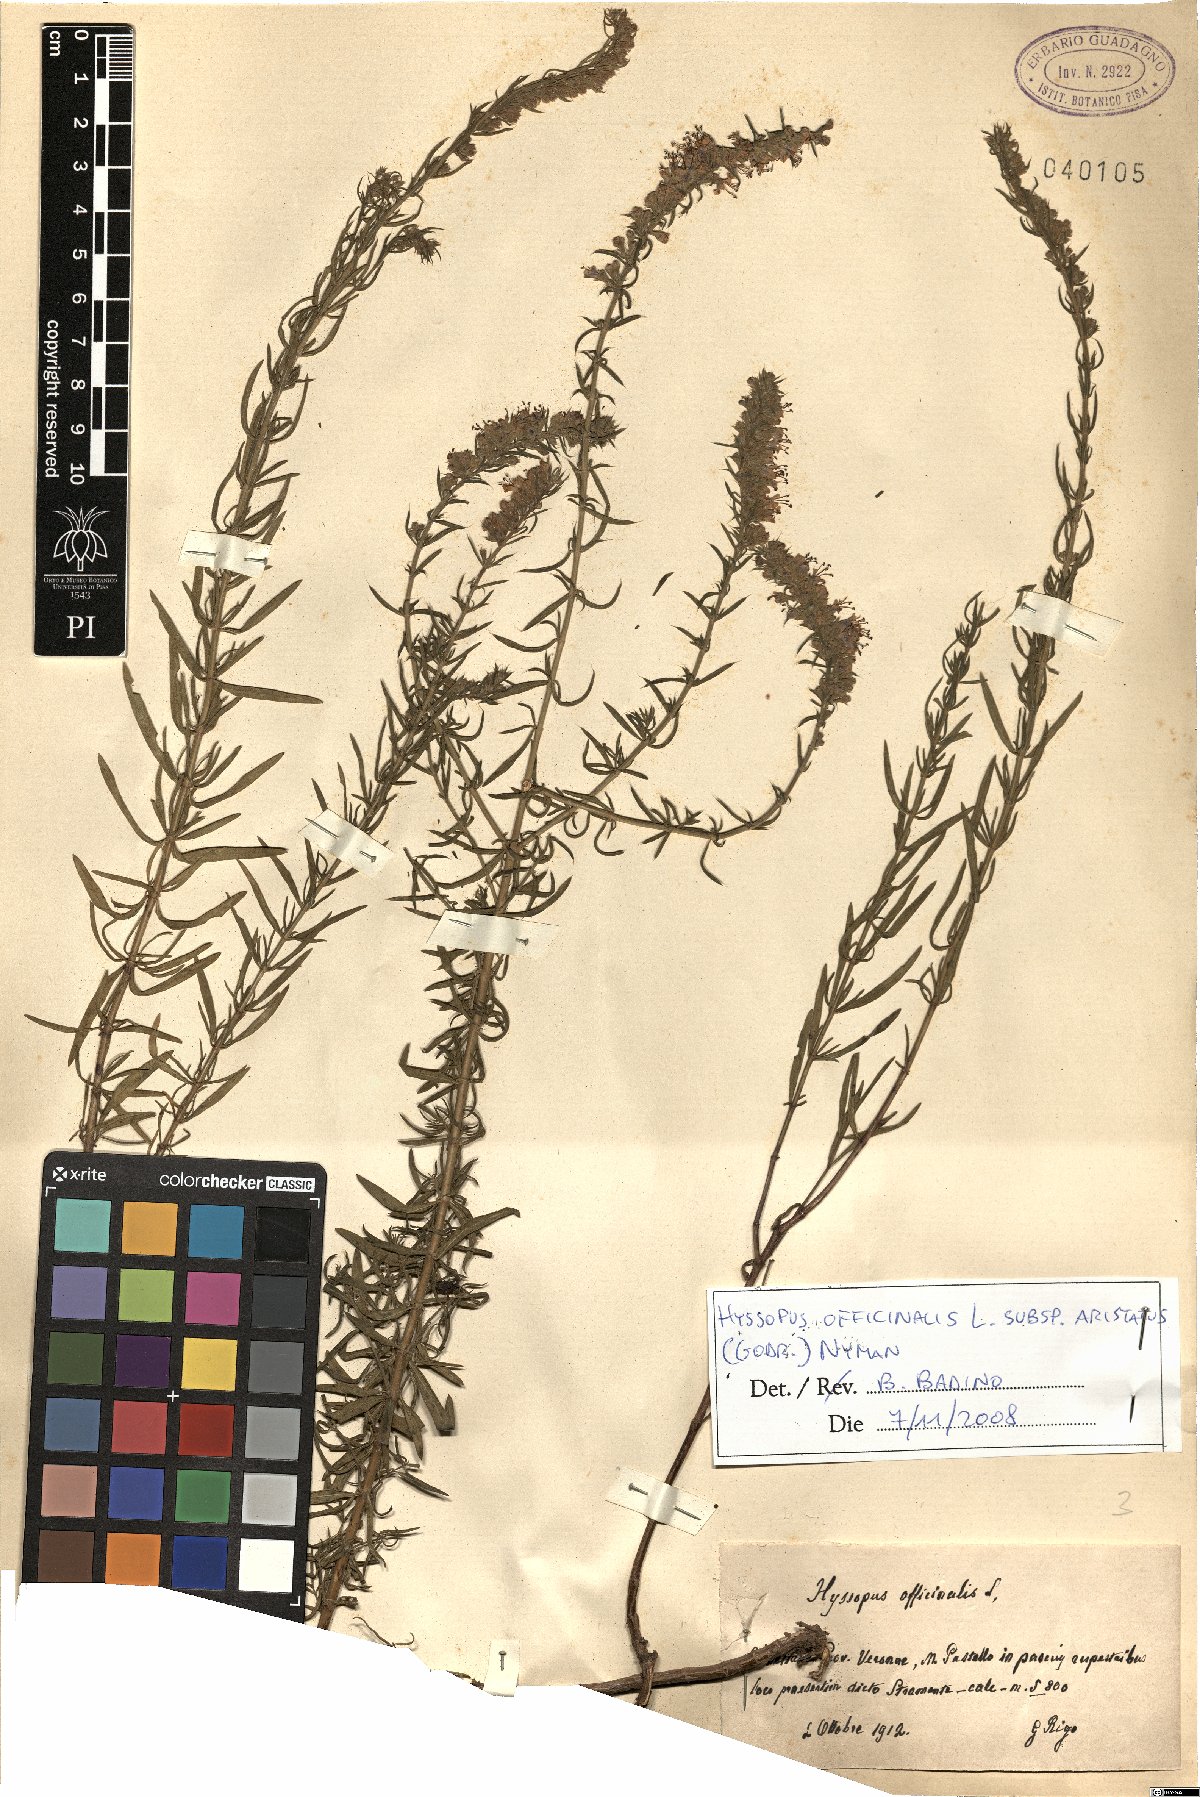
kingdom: Plantae
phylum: Tracheophyta
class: Magnoliopsida
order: Lamiales
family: Lamiaceae
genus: Hyssopus
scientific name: Hyssopus officinalis
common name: Hyssop
